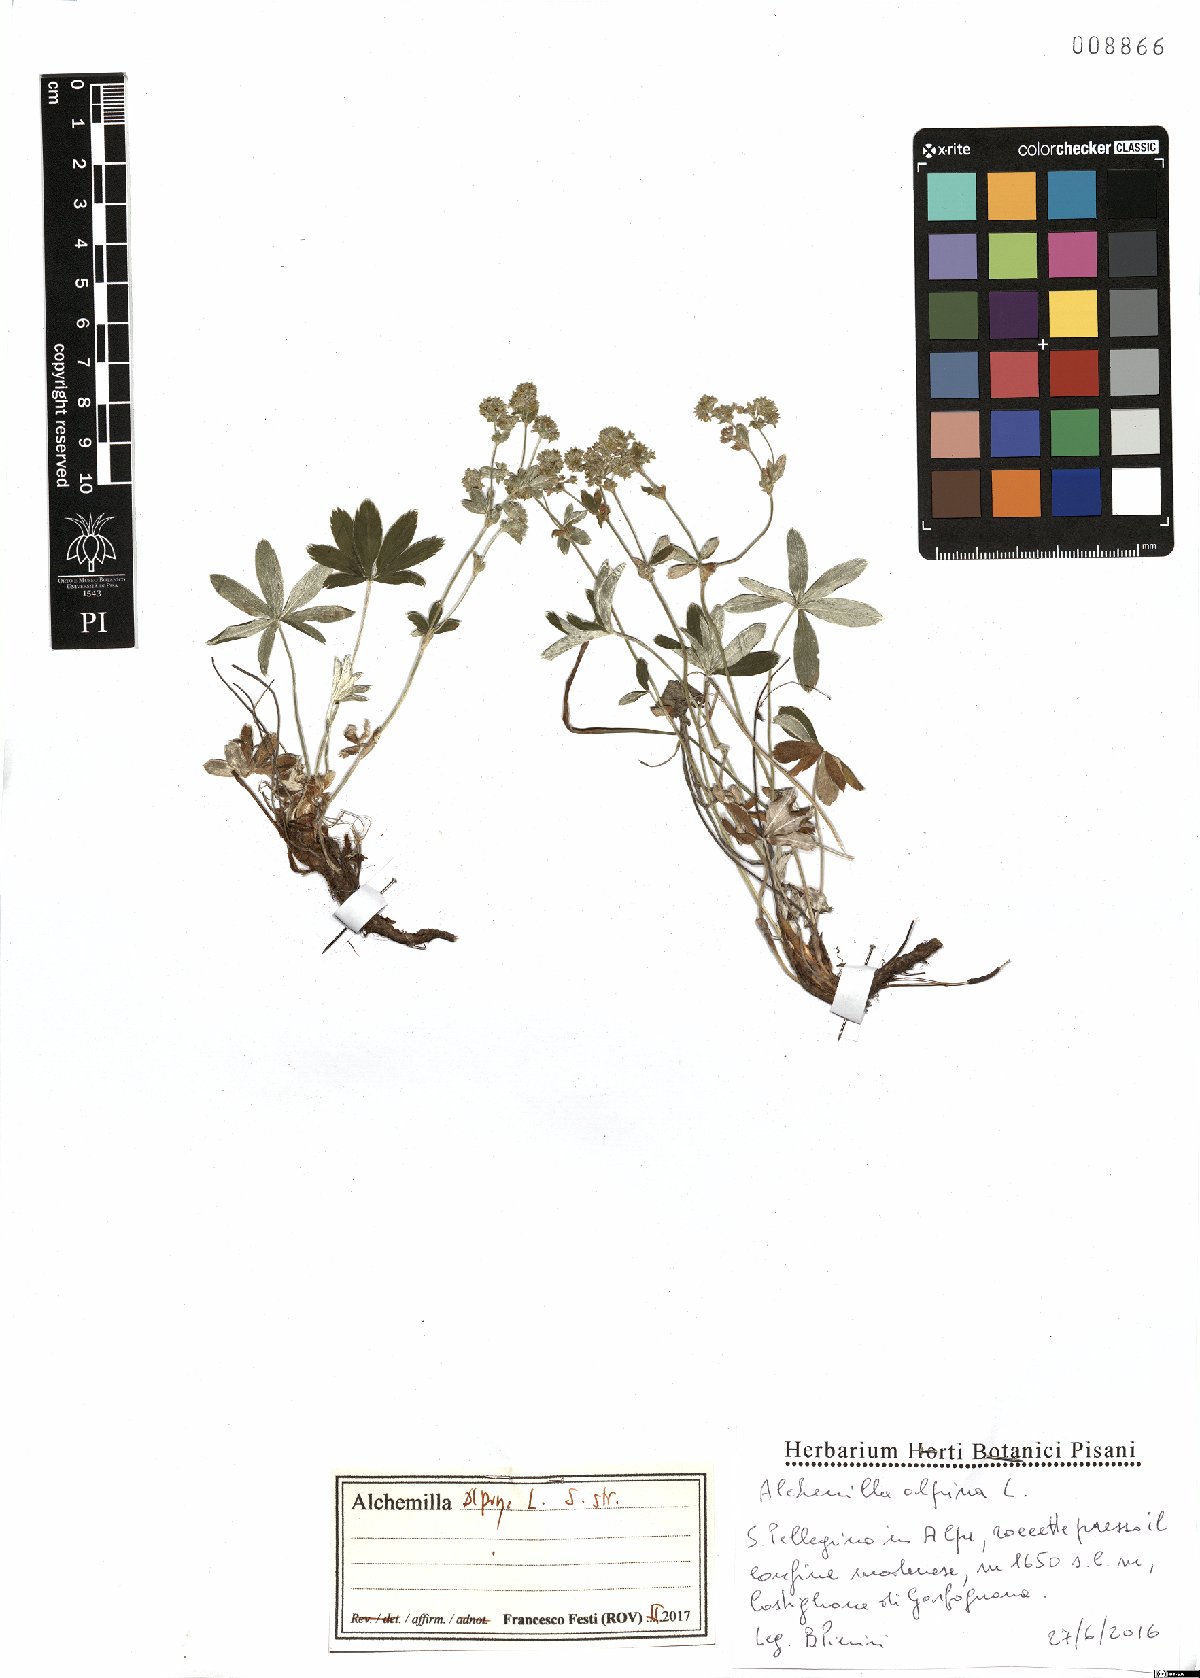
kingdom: Plantae
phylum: Tracheophyta
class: Magnoliopsida
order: Rosales
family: Rosaceae
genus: Alchemilla
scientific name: Alchemilla alpina
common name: Alpine lady's-mantle
